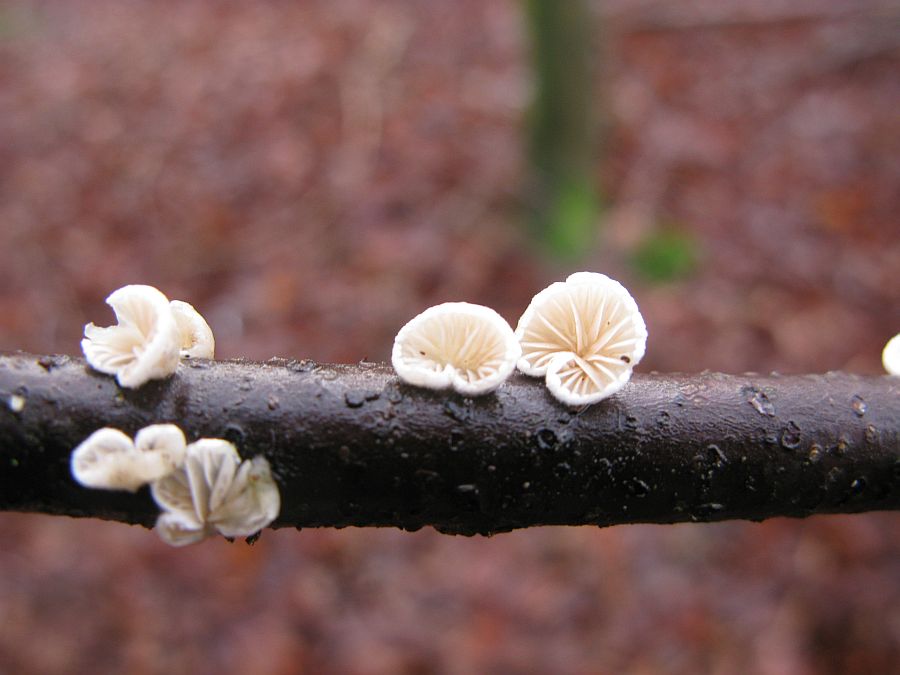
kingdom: Fungi
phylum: Basidiomycota
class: Agaricomycetes
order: Agaricales
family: Crepidotaceae
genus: Crepidotus
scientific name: Crepidotus cesatii
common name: almindelig muslingesvamp
